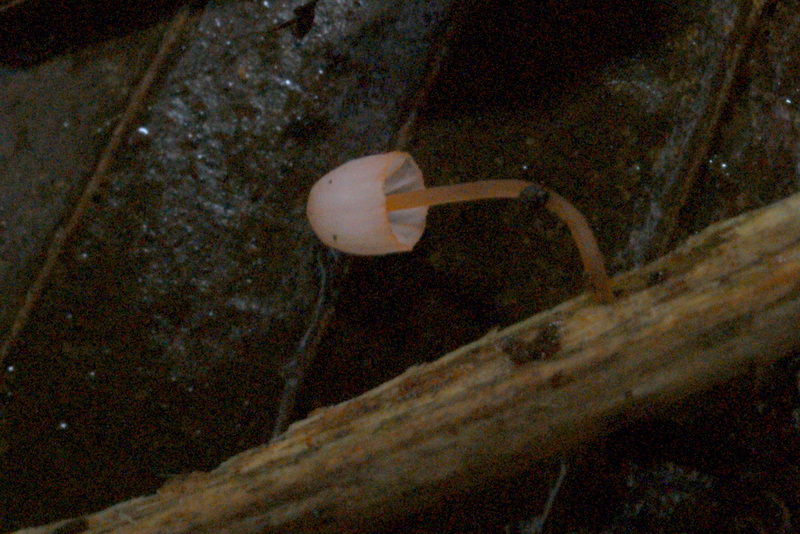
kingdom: Fungi
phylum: Basidiomycota
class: Agaricomycetes
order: Agaricales
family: Mycenaceae
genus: Mycena
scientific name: Mycena pterigena
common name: bregne-huesvamp
